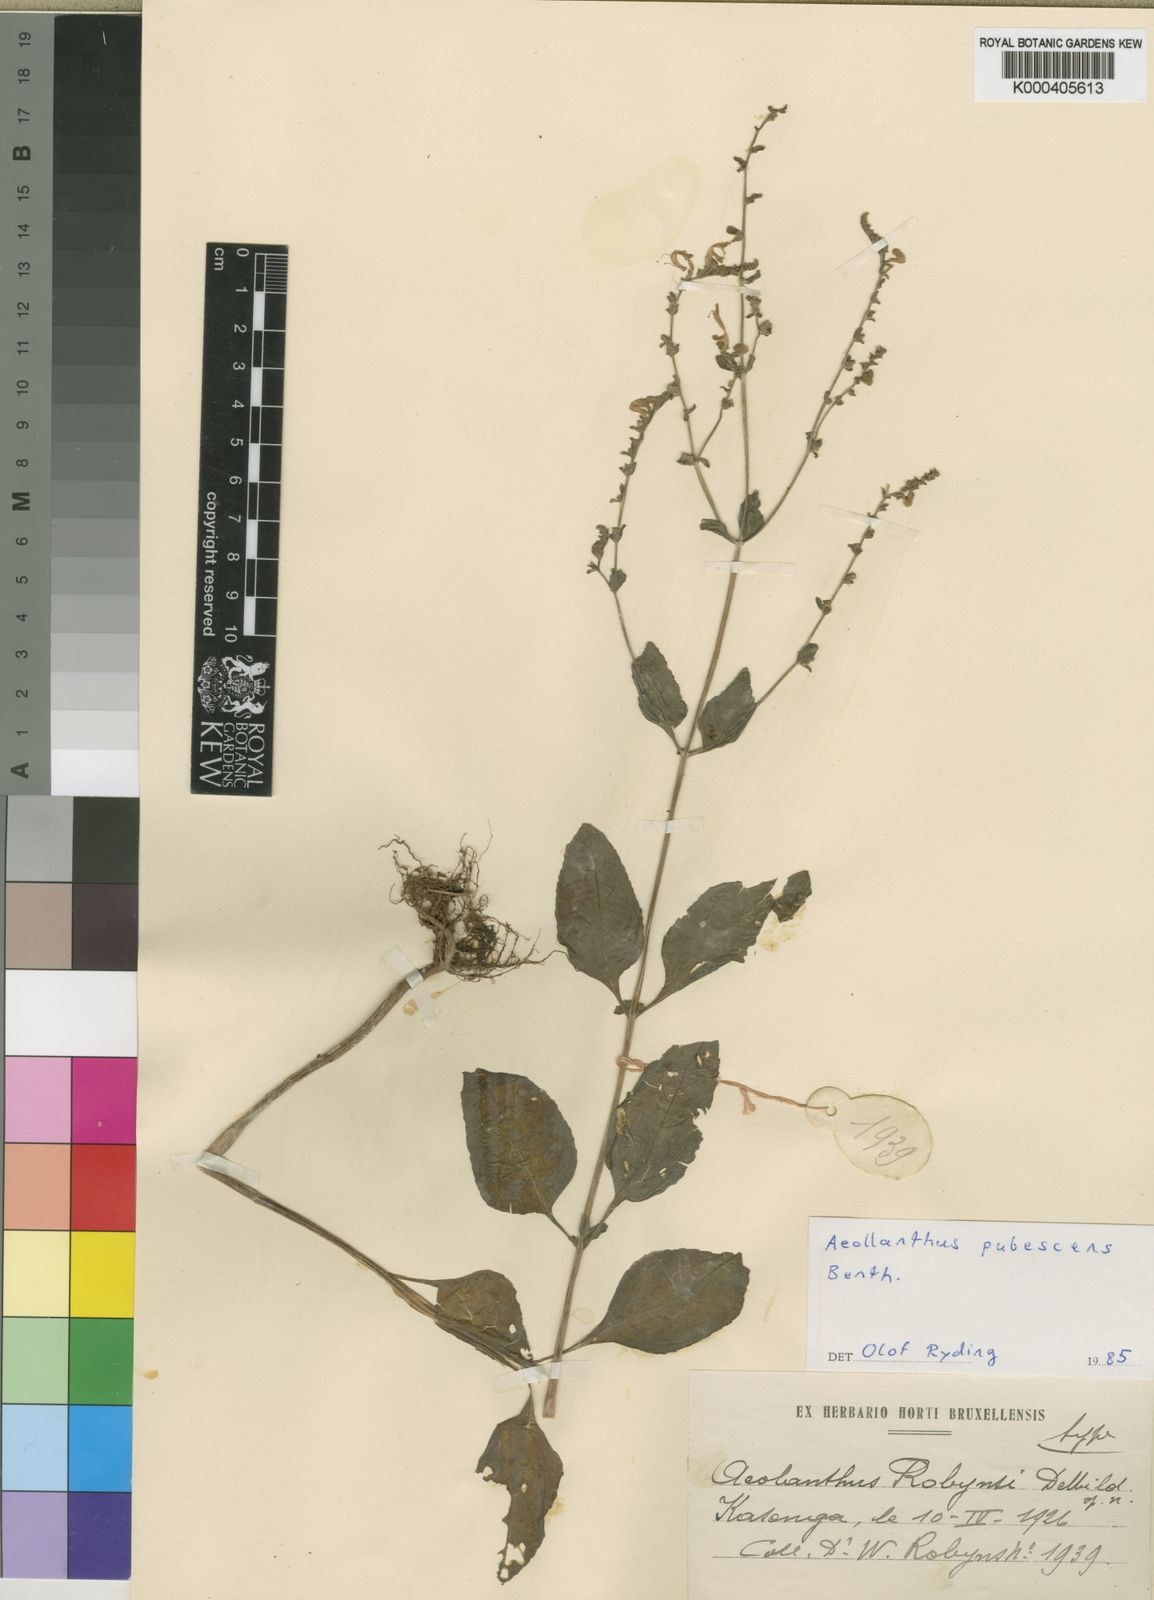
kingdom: Plantae
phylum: Tracheophyta
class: Magnoliopsida
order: Lamiales
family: Lamiaceae
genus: Aeollanthus
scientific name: Aeollanthus pubescens
